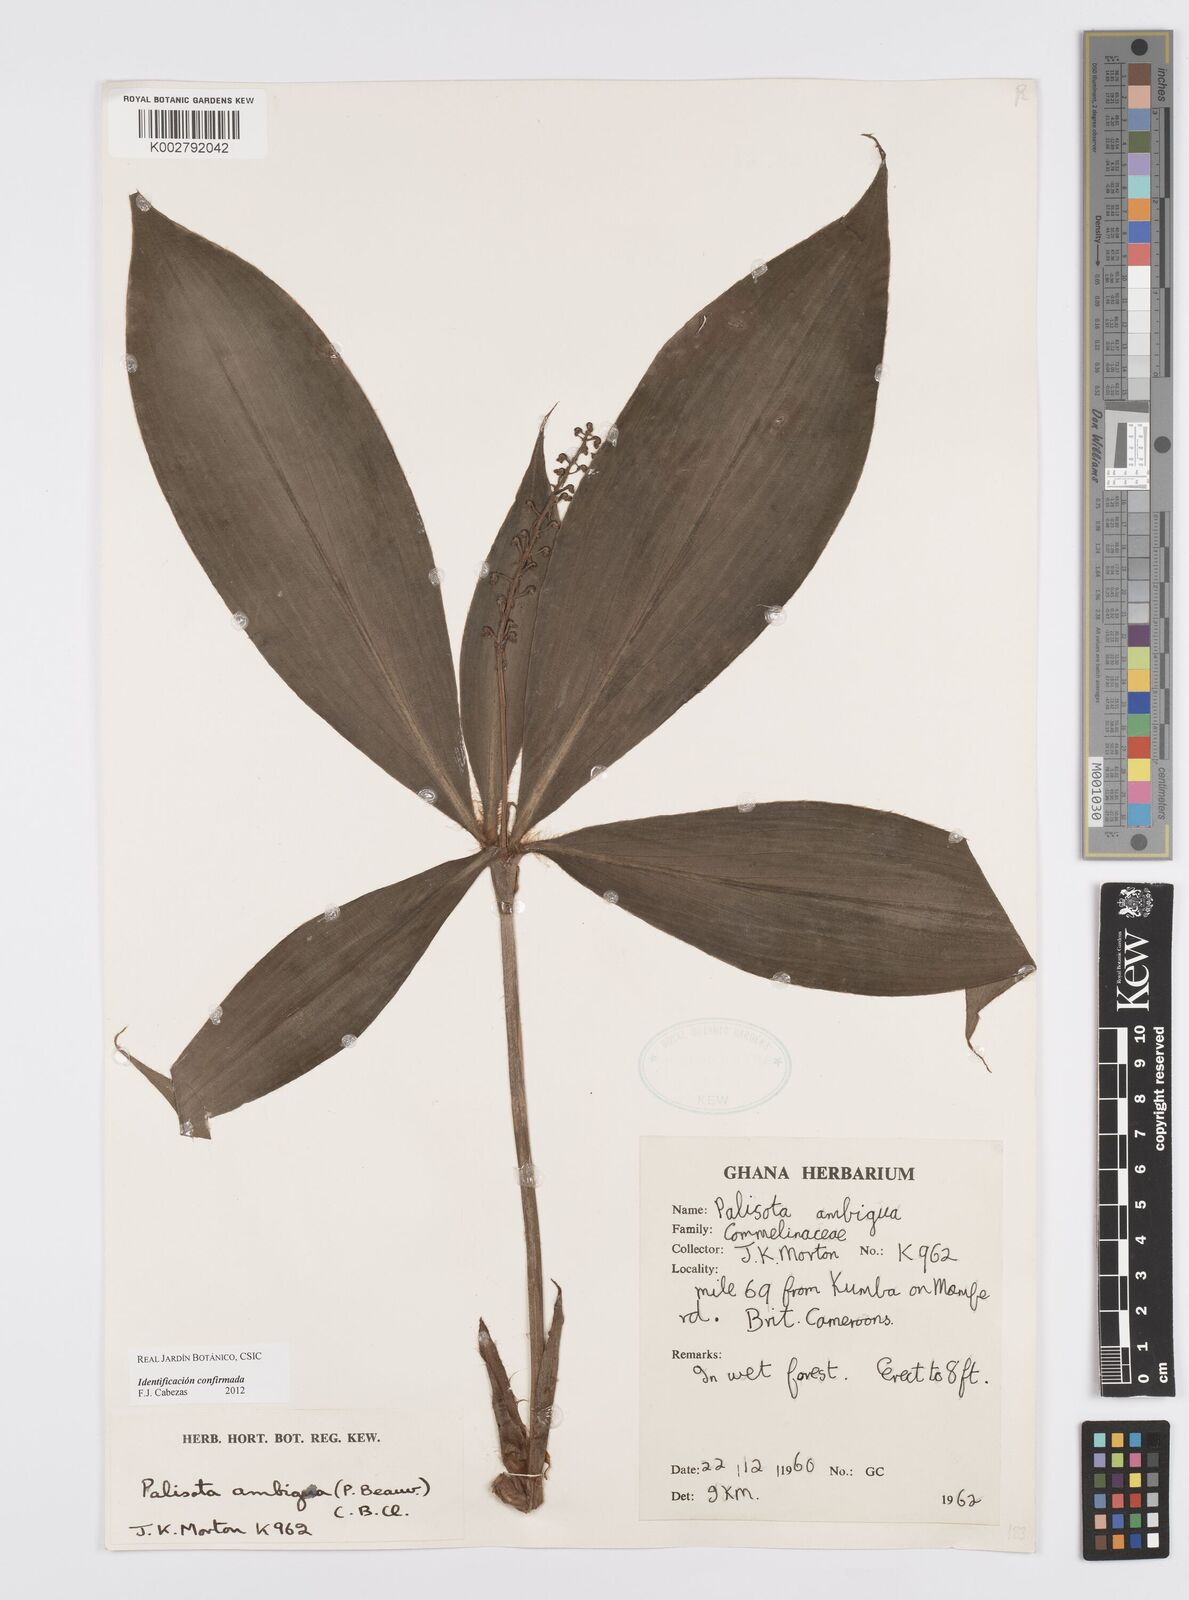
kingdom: Plantae
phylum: Tracheophyta
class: Liliopsida
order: Commelinales
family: Commelinaceae
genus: Palisota
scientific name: Palisota ambigua
